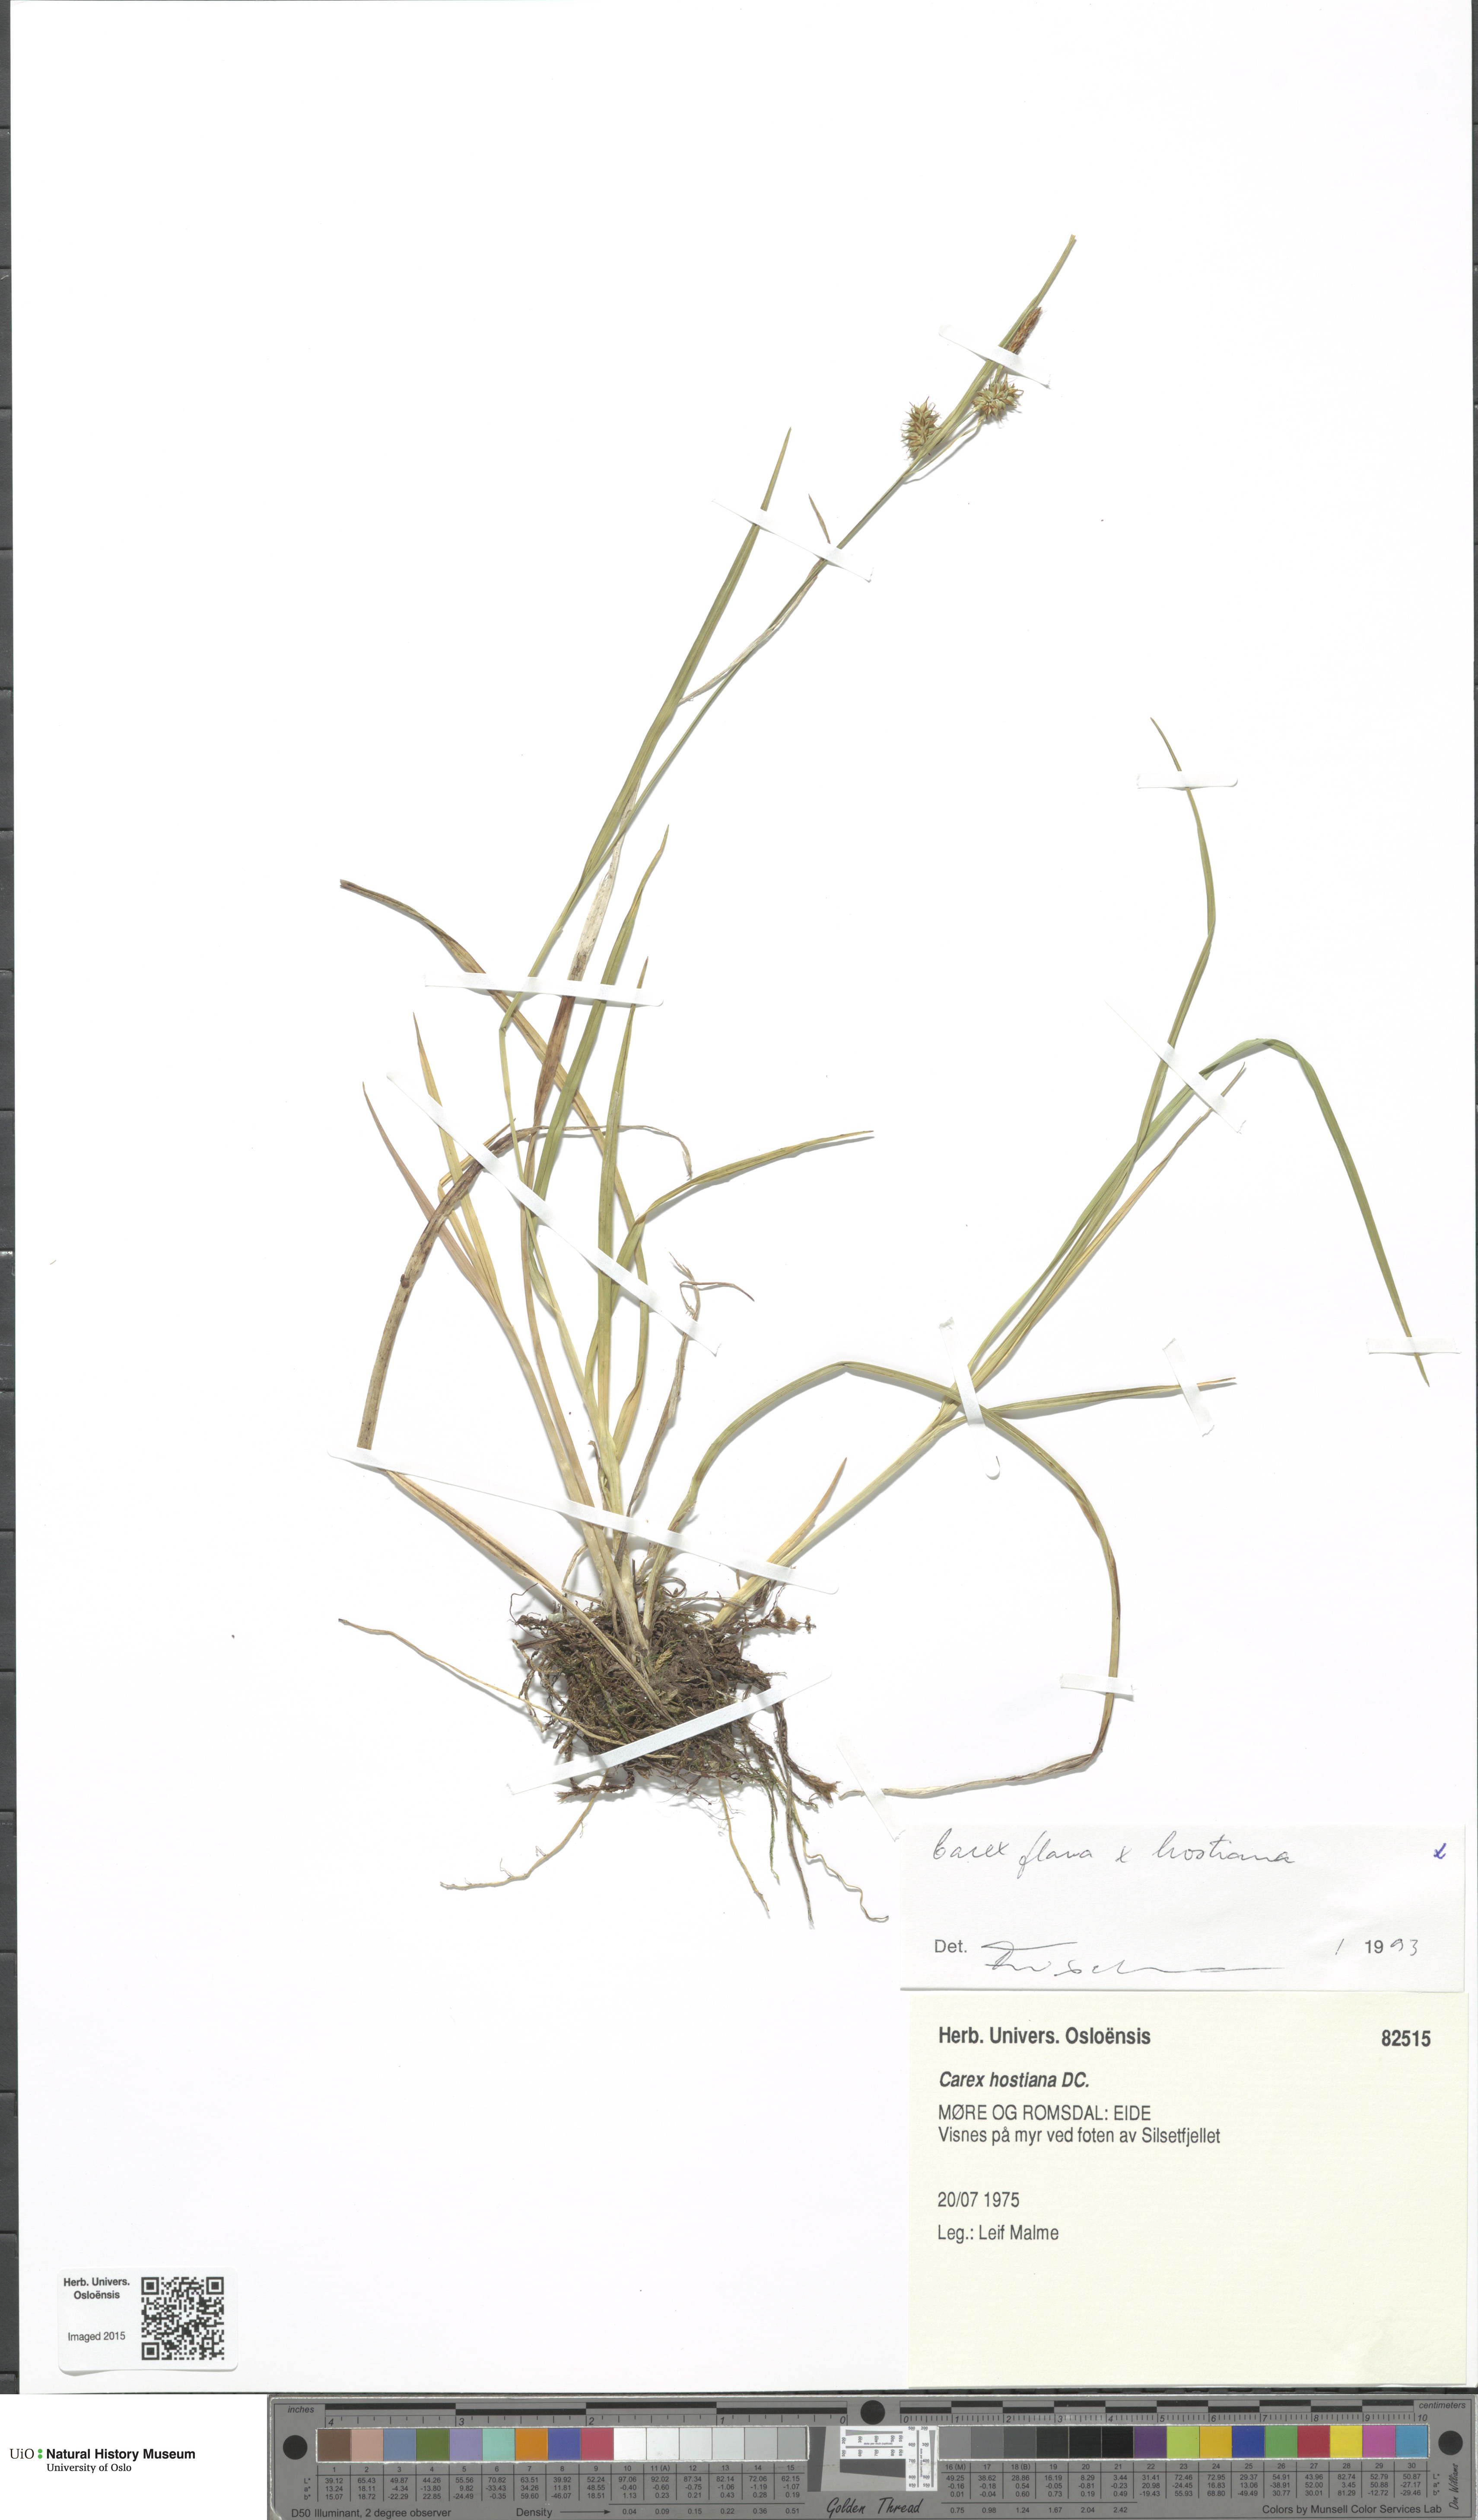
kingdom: Plantae
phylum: Tracheophyta
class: Liliopsida
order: Poales
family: Cyperaceae
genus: Carex
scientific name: Carex
